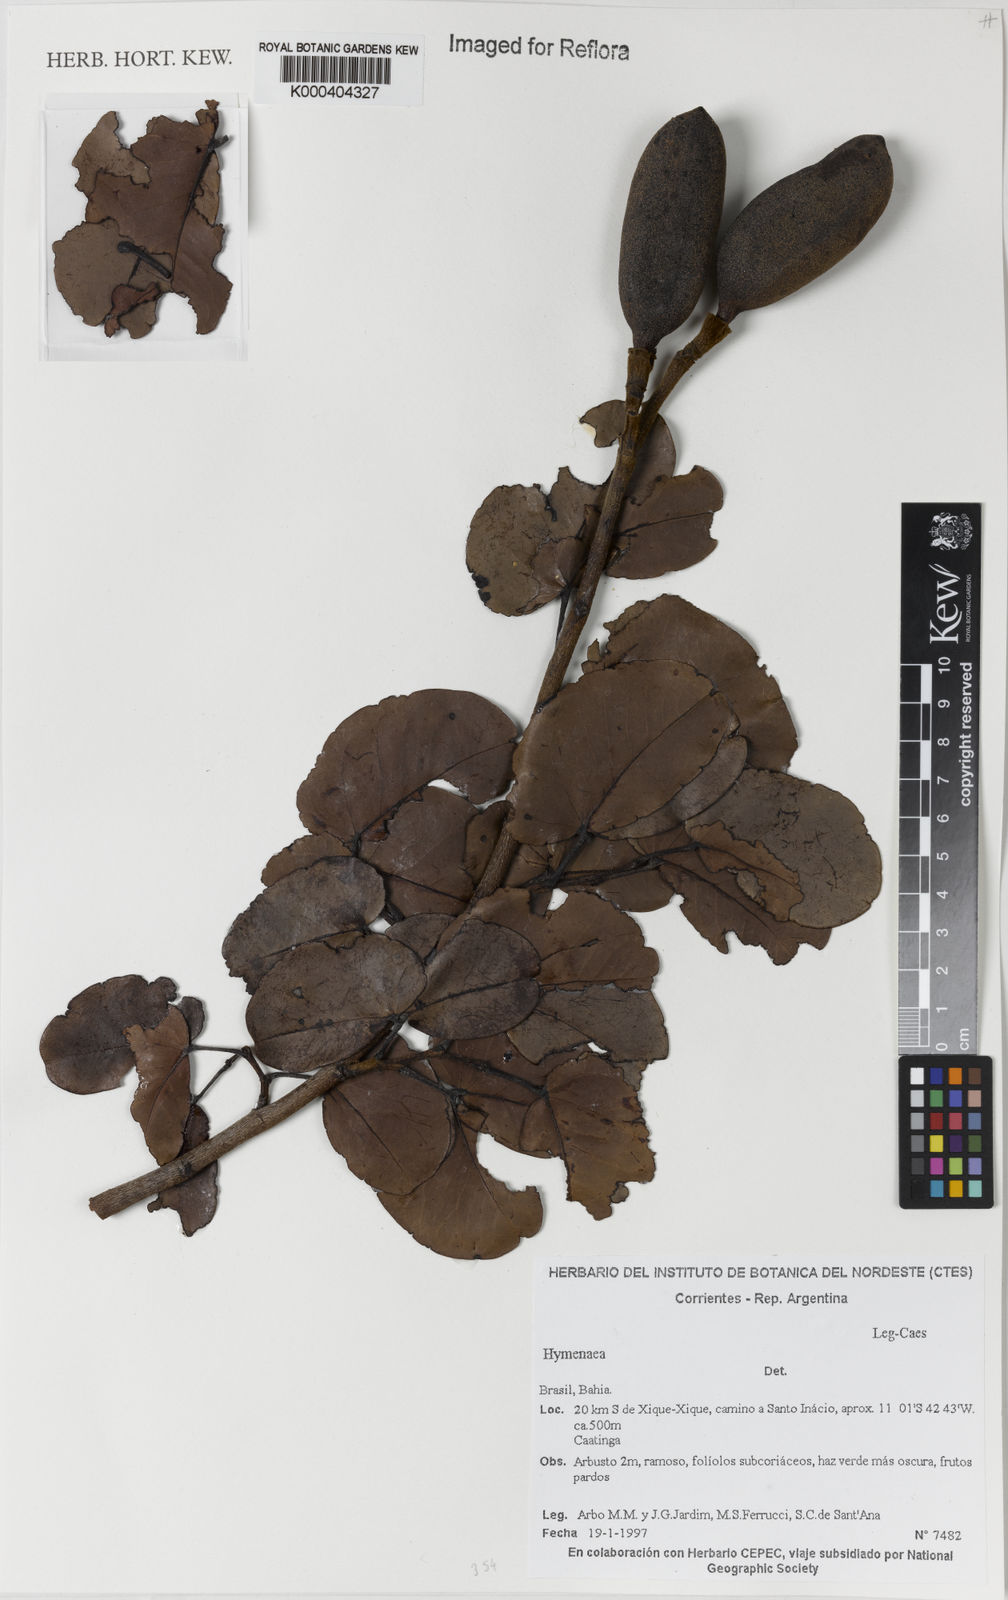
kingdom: Plantae
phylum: Tracheophyta
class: Magnoliopsida
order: Fabales
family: Fabaceae
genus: Hymenaea
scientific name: Hymenaea
